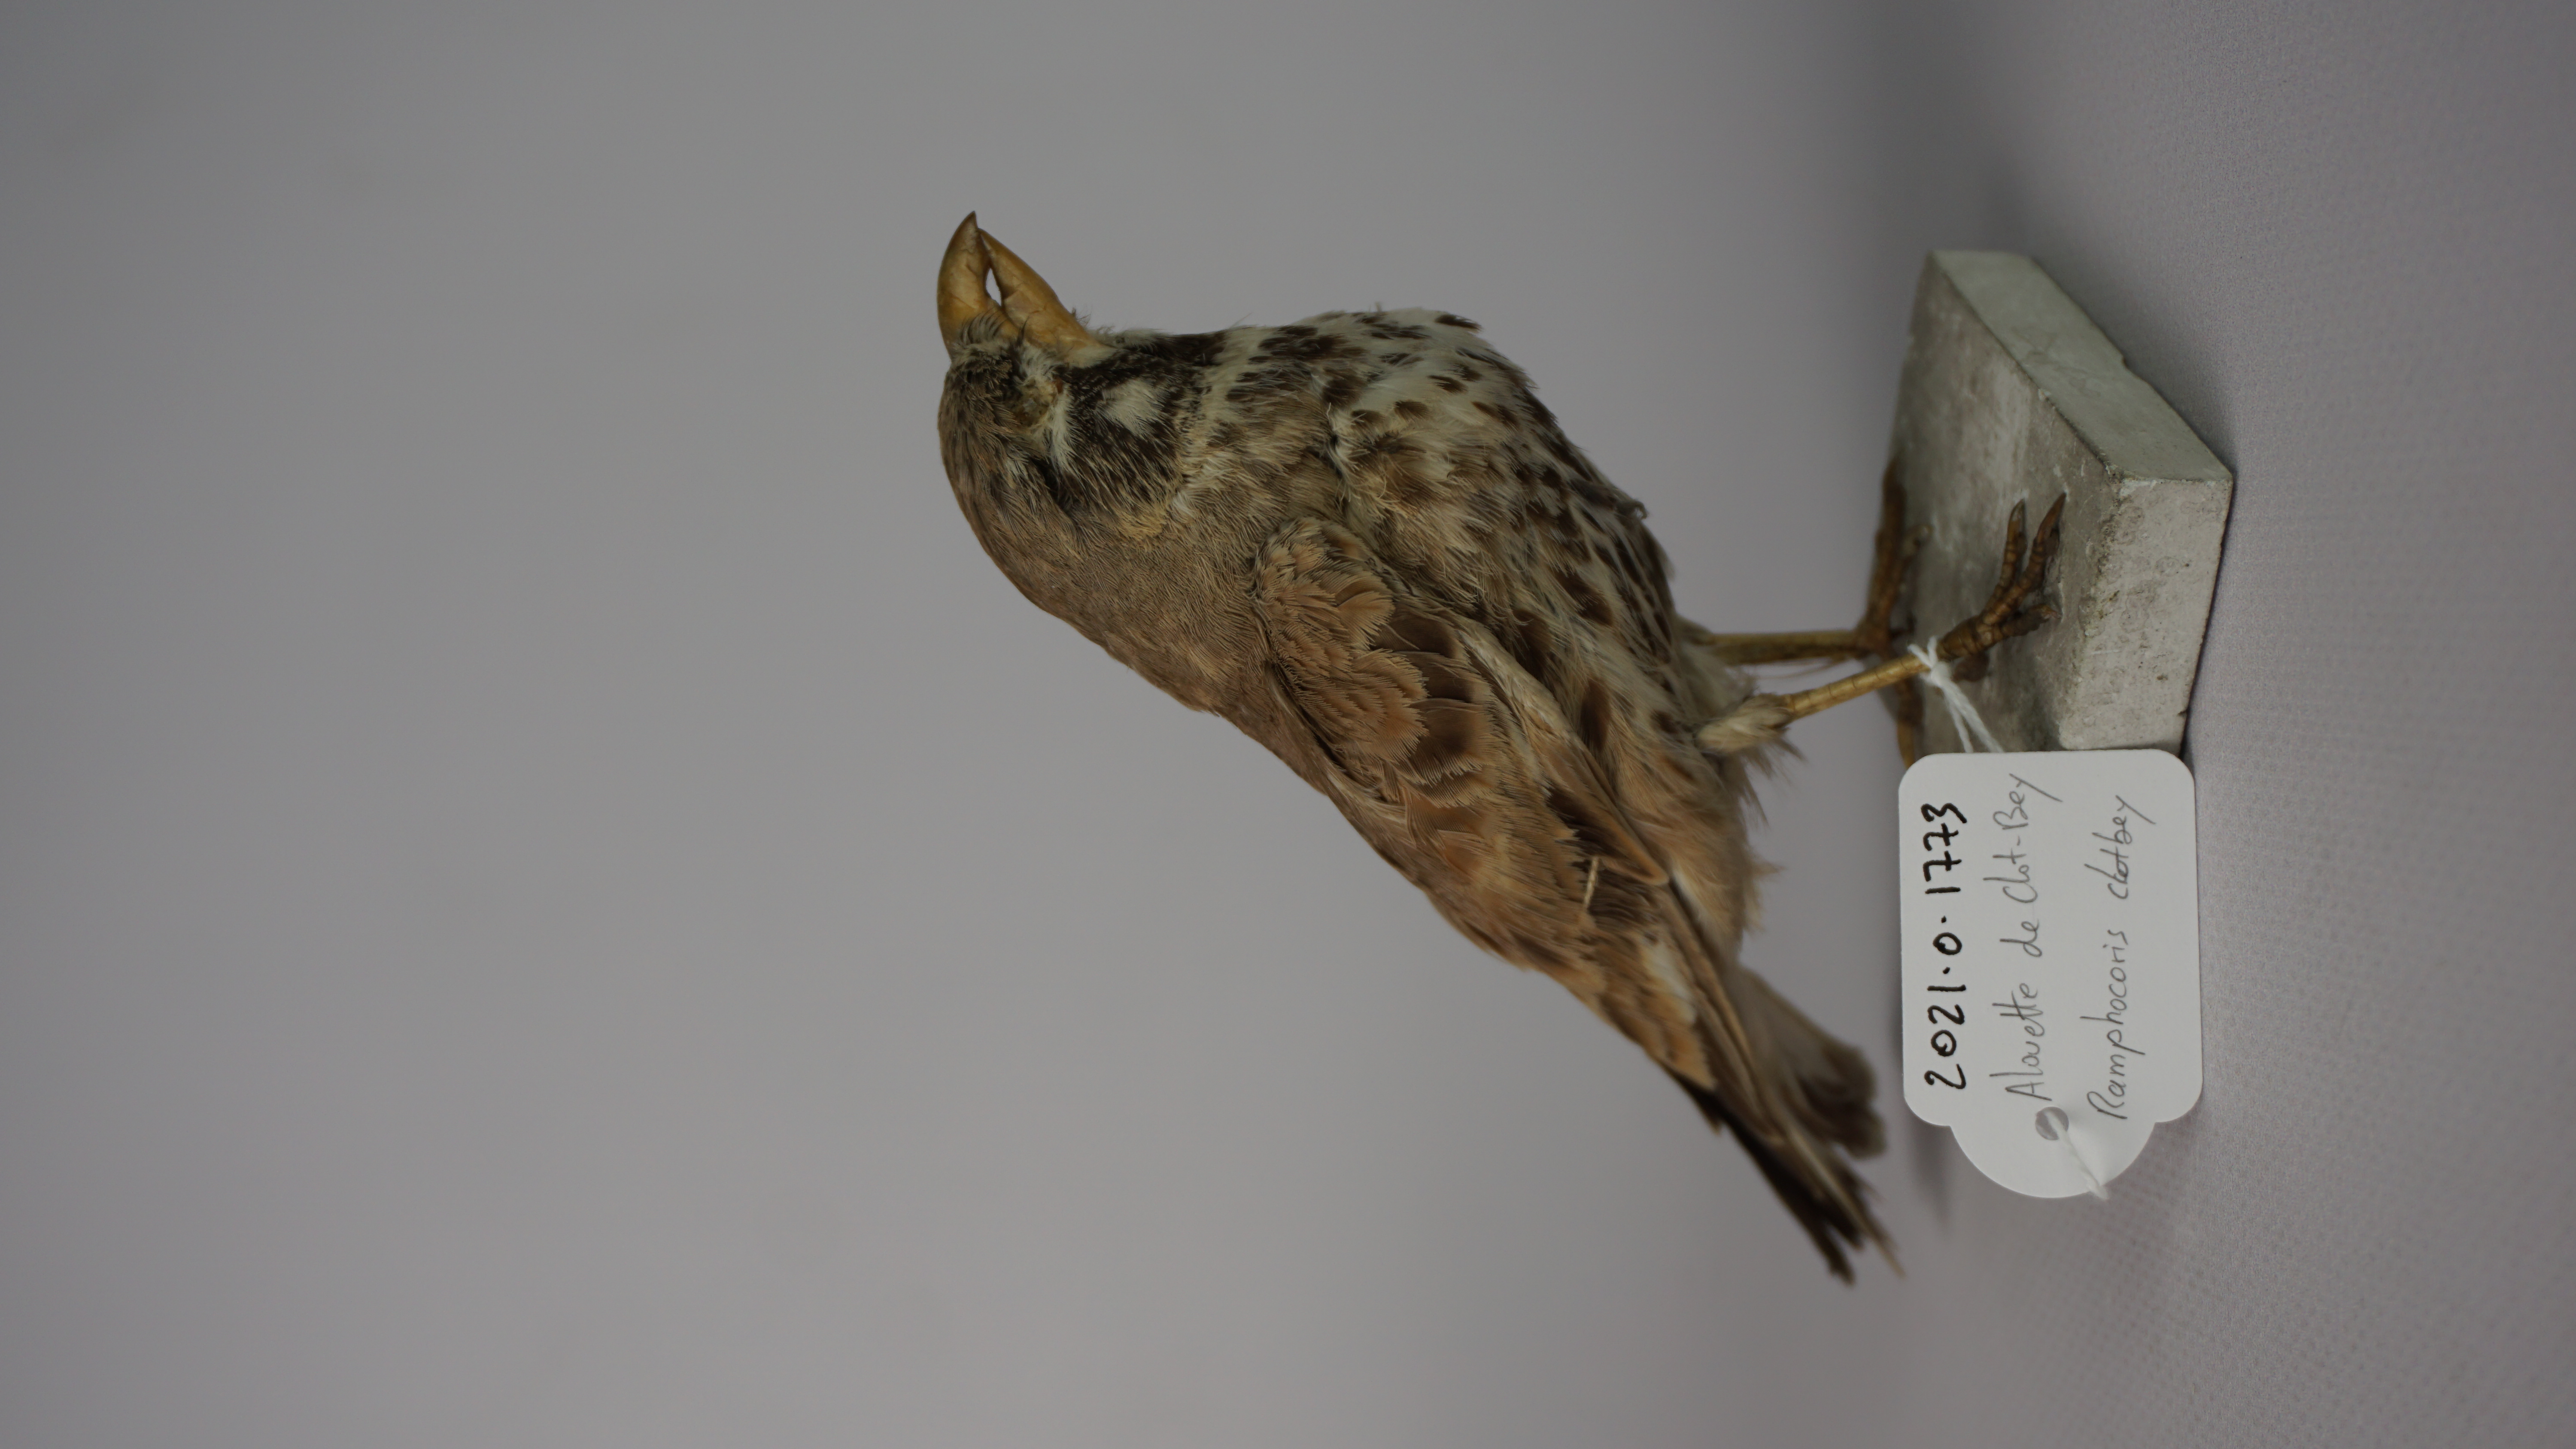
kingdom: Animalia
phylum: Chordata
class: Aves
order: Passeriformes
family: Alaudidae
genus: Ramphocoris
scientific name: Ramphocoris clotbey
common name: Thick-billed lark
